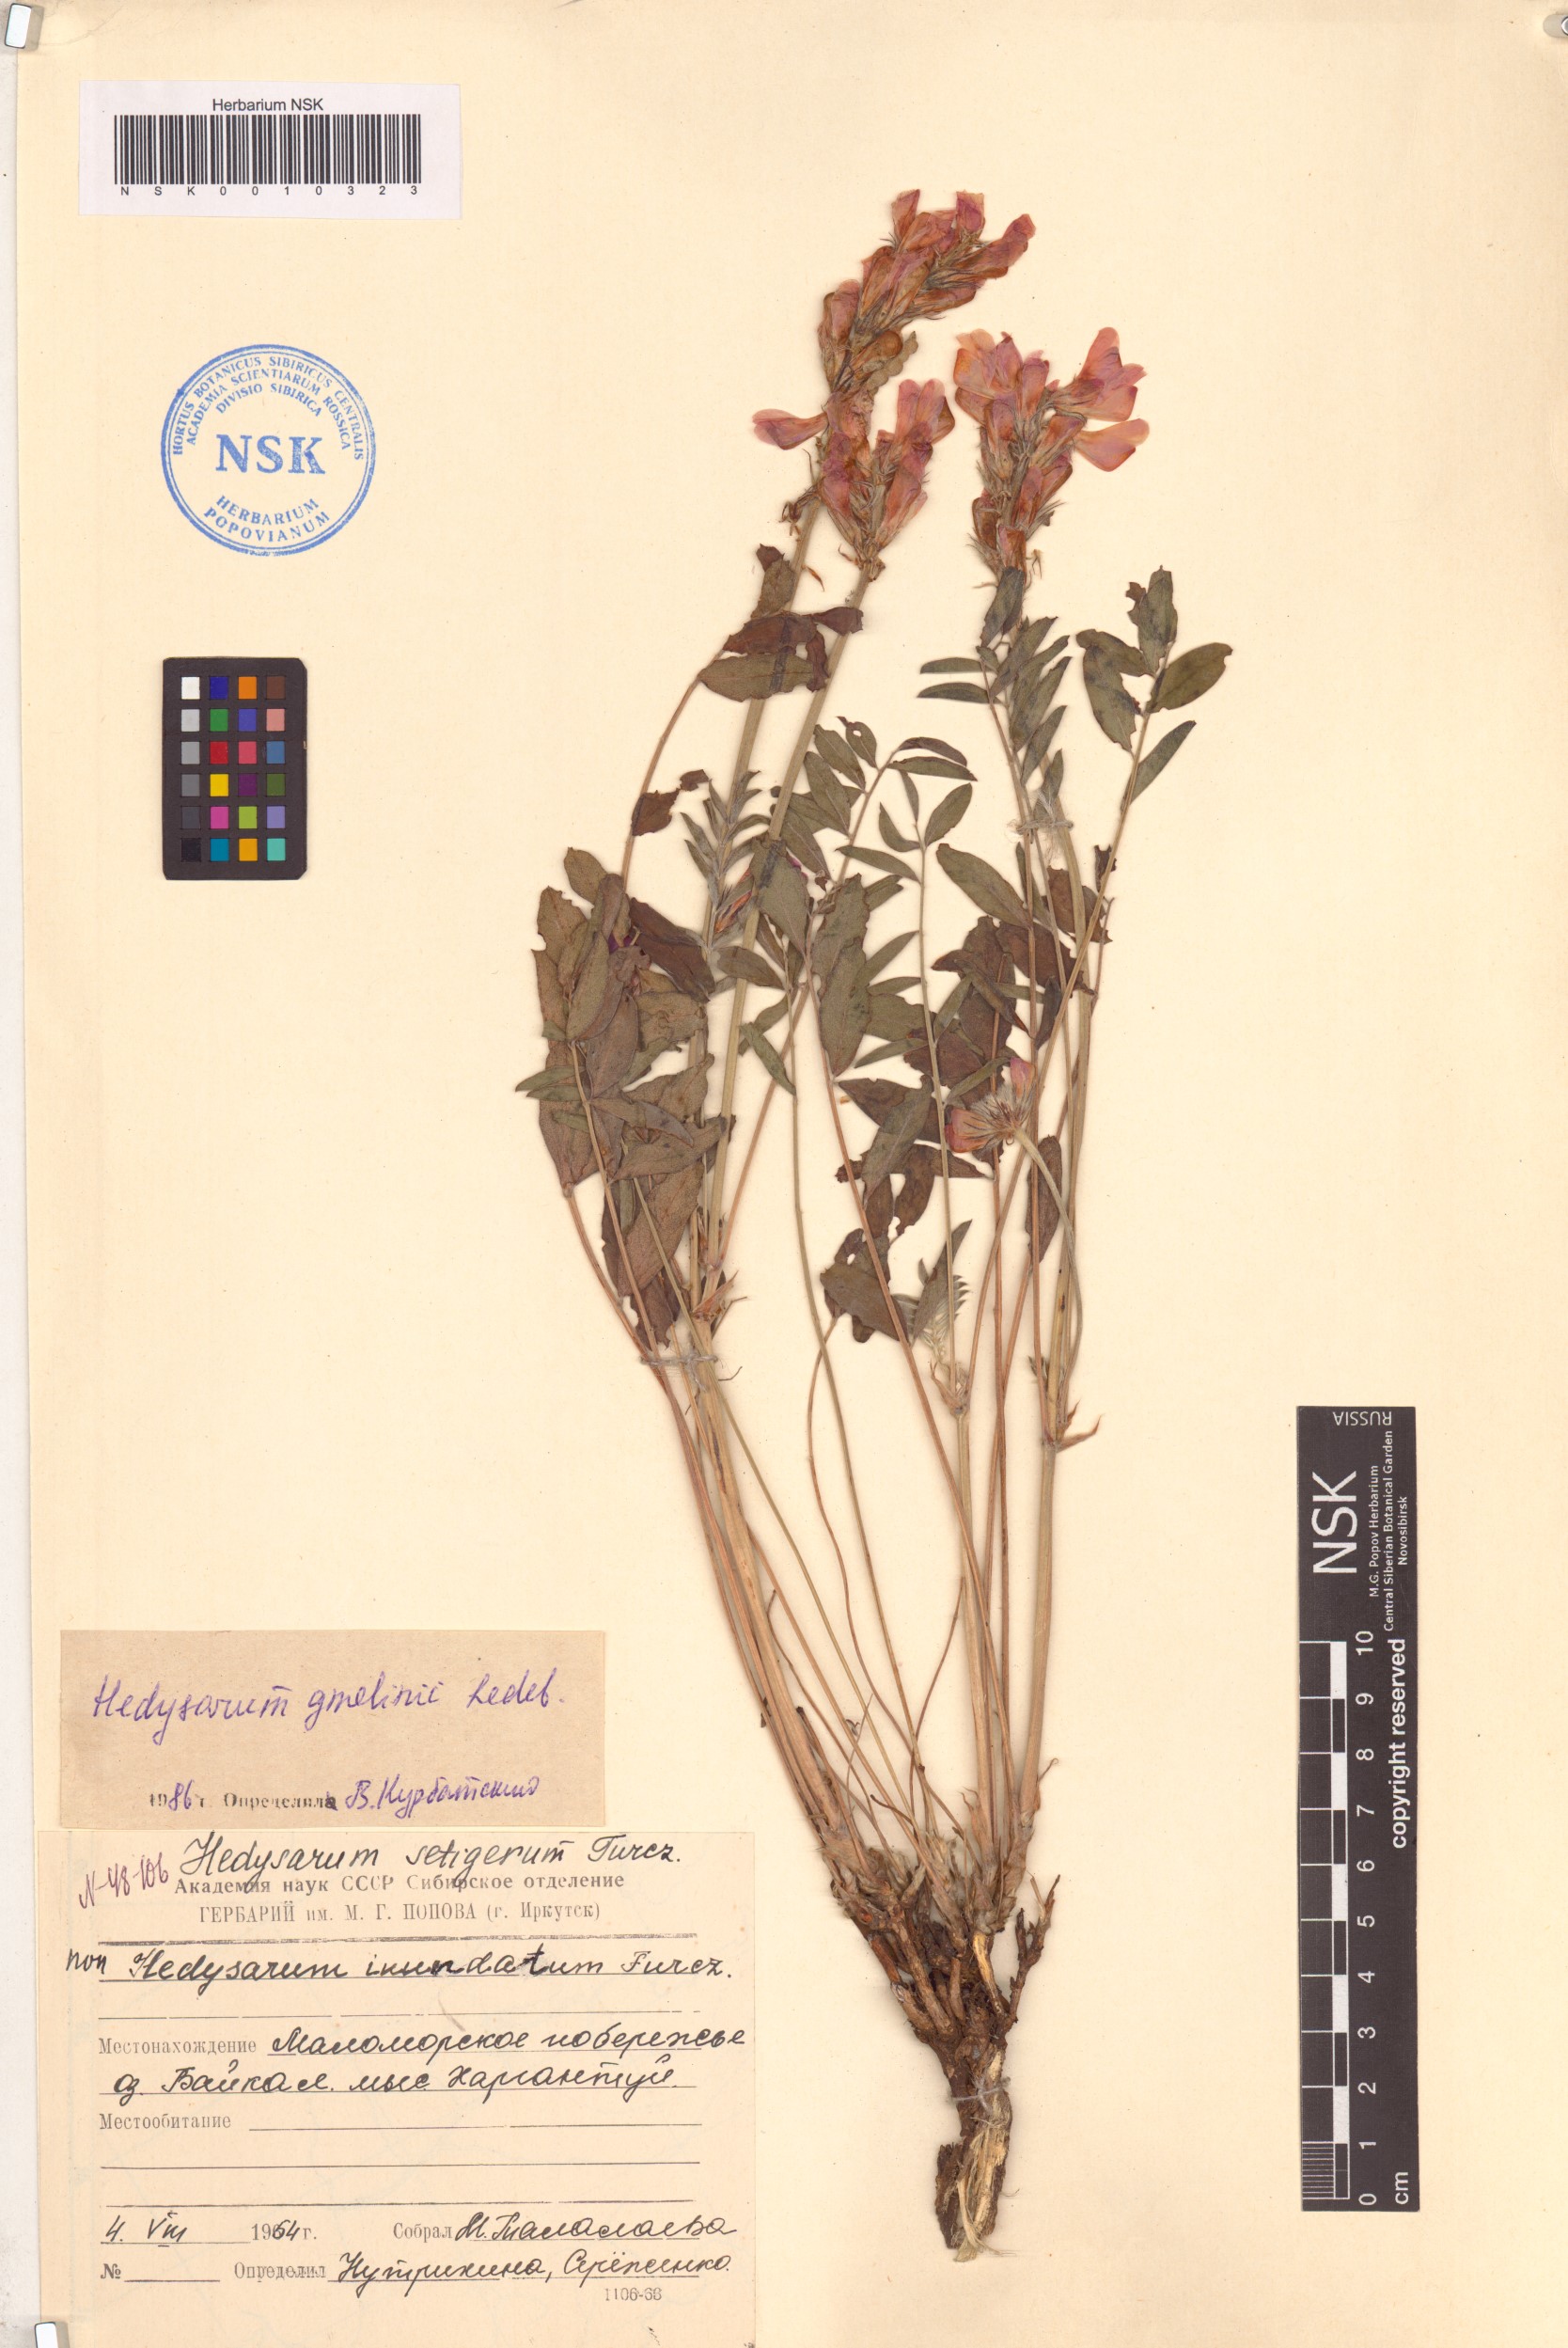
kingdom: Plantae
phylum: Tracheophyta
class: Magnoliopsida
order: Fabales
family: Fabaceae
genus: Hedysarum
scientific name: Hedysarum gmelinii
